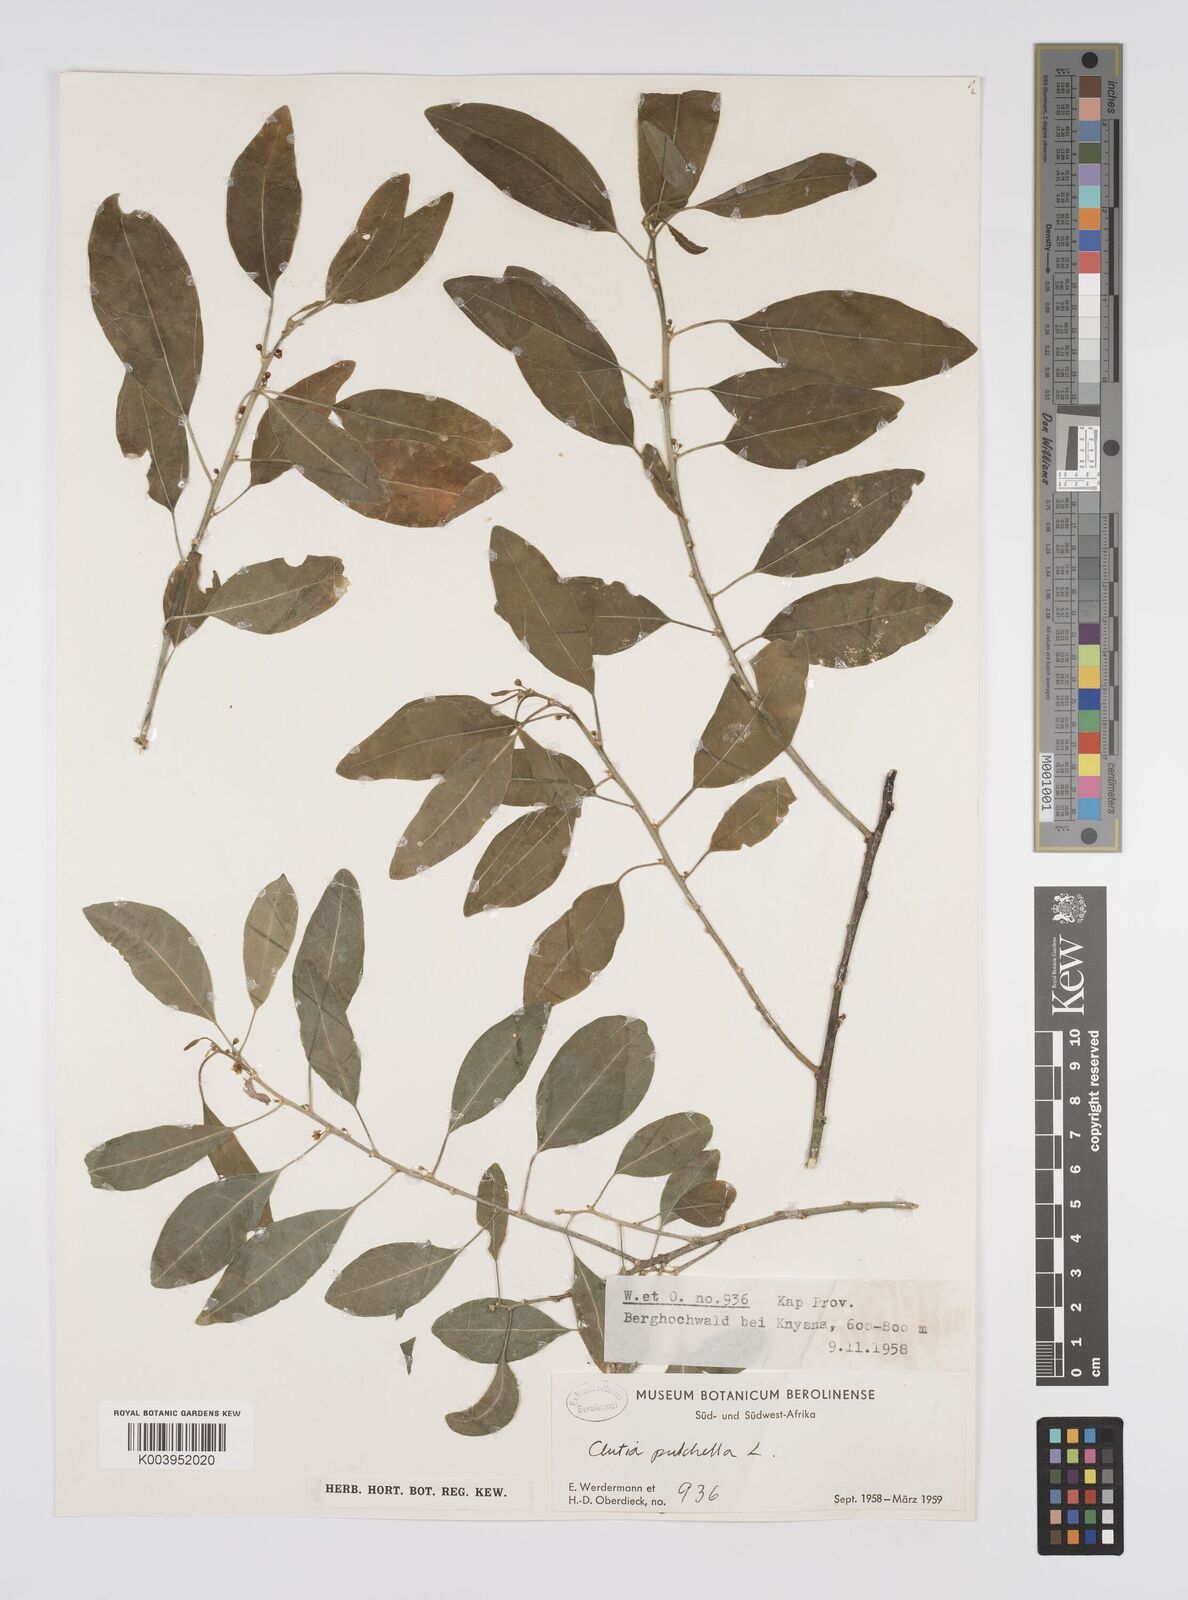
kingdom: Plantae
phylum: Tracheophyta
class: Magnoliopsida
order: Malpighiales
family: Peraceae
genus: Clutia
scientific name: Clutia pulchella
